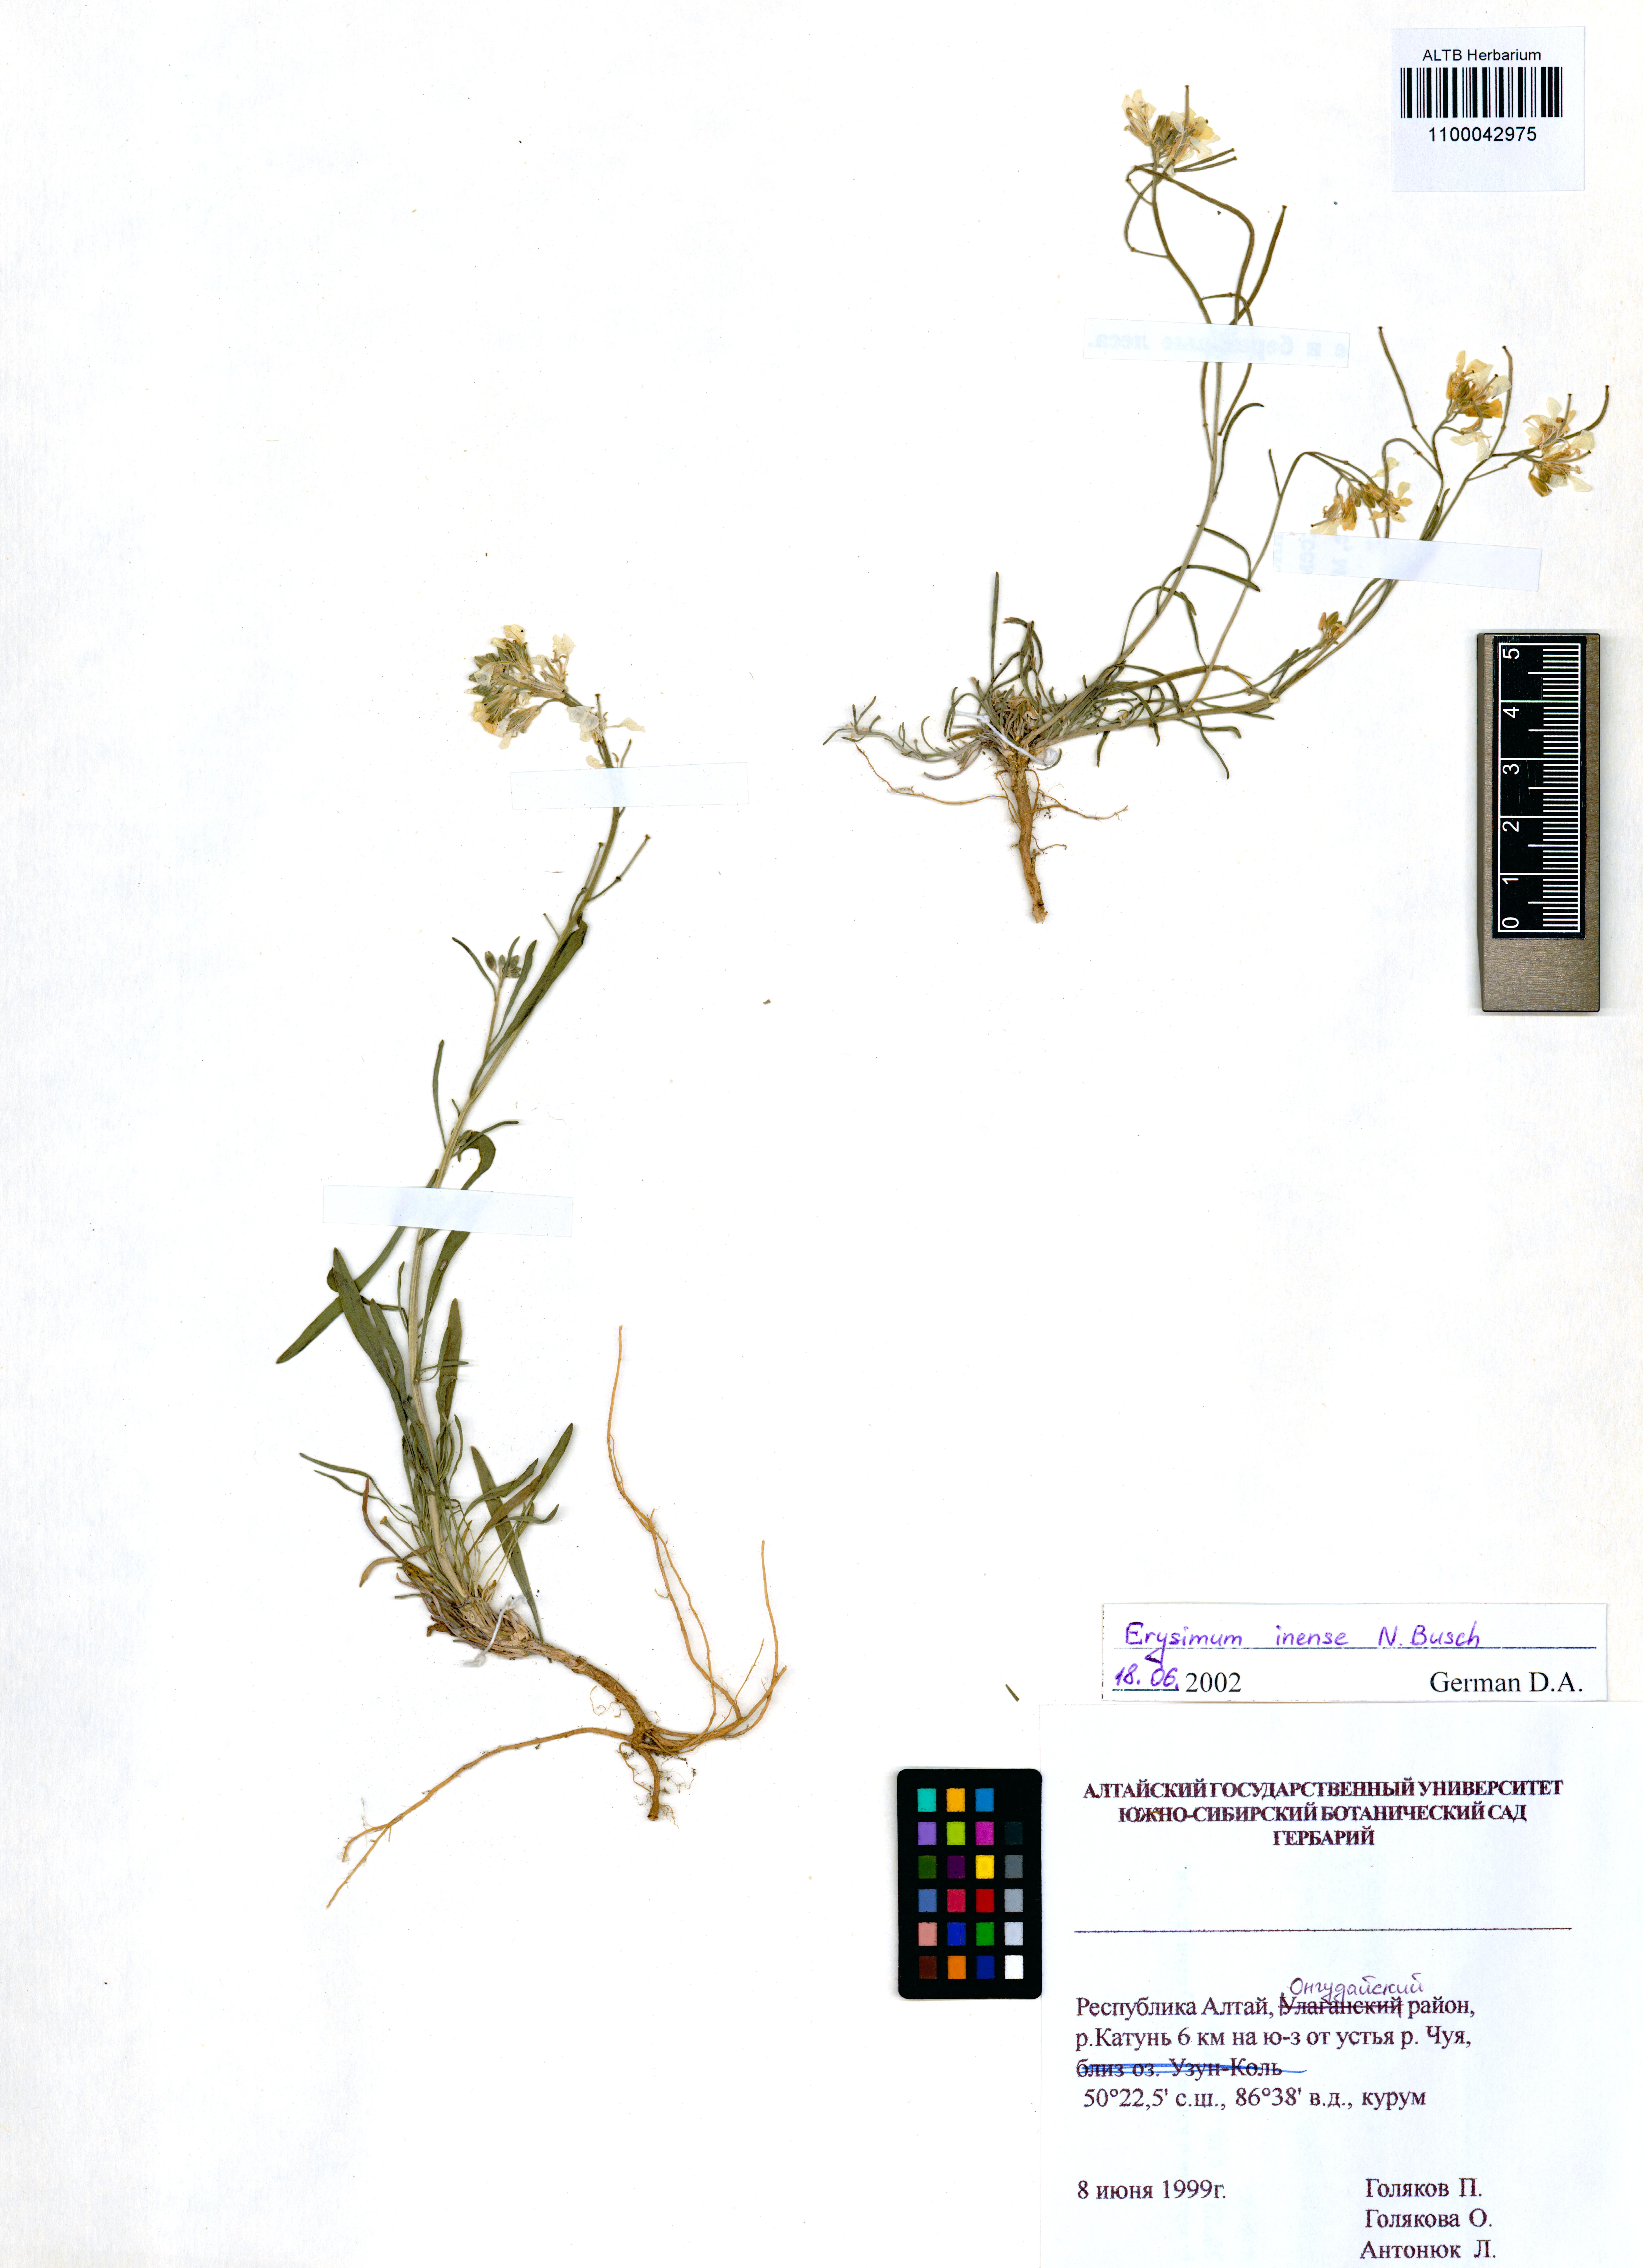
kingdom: Plantae
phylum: Tracheophyta
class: Magnoliopsida
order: Brassicales
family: Brassicaceae
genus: Erysimum
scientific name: Erysimum inense
